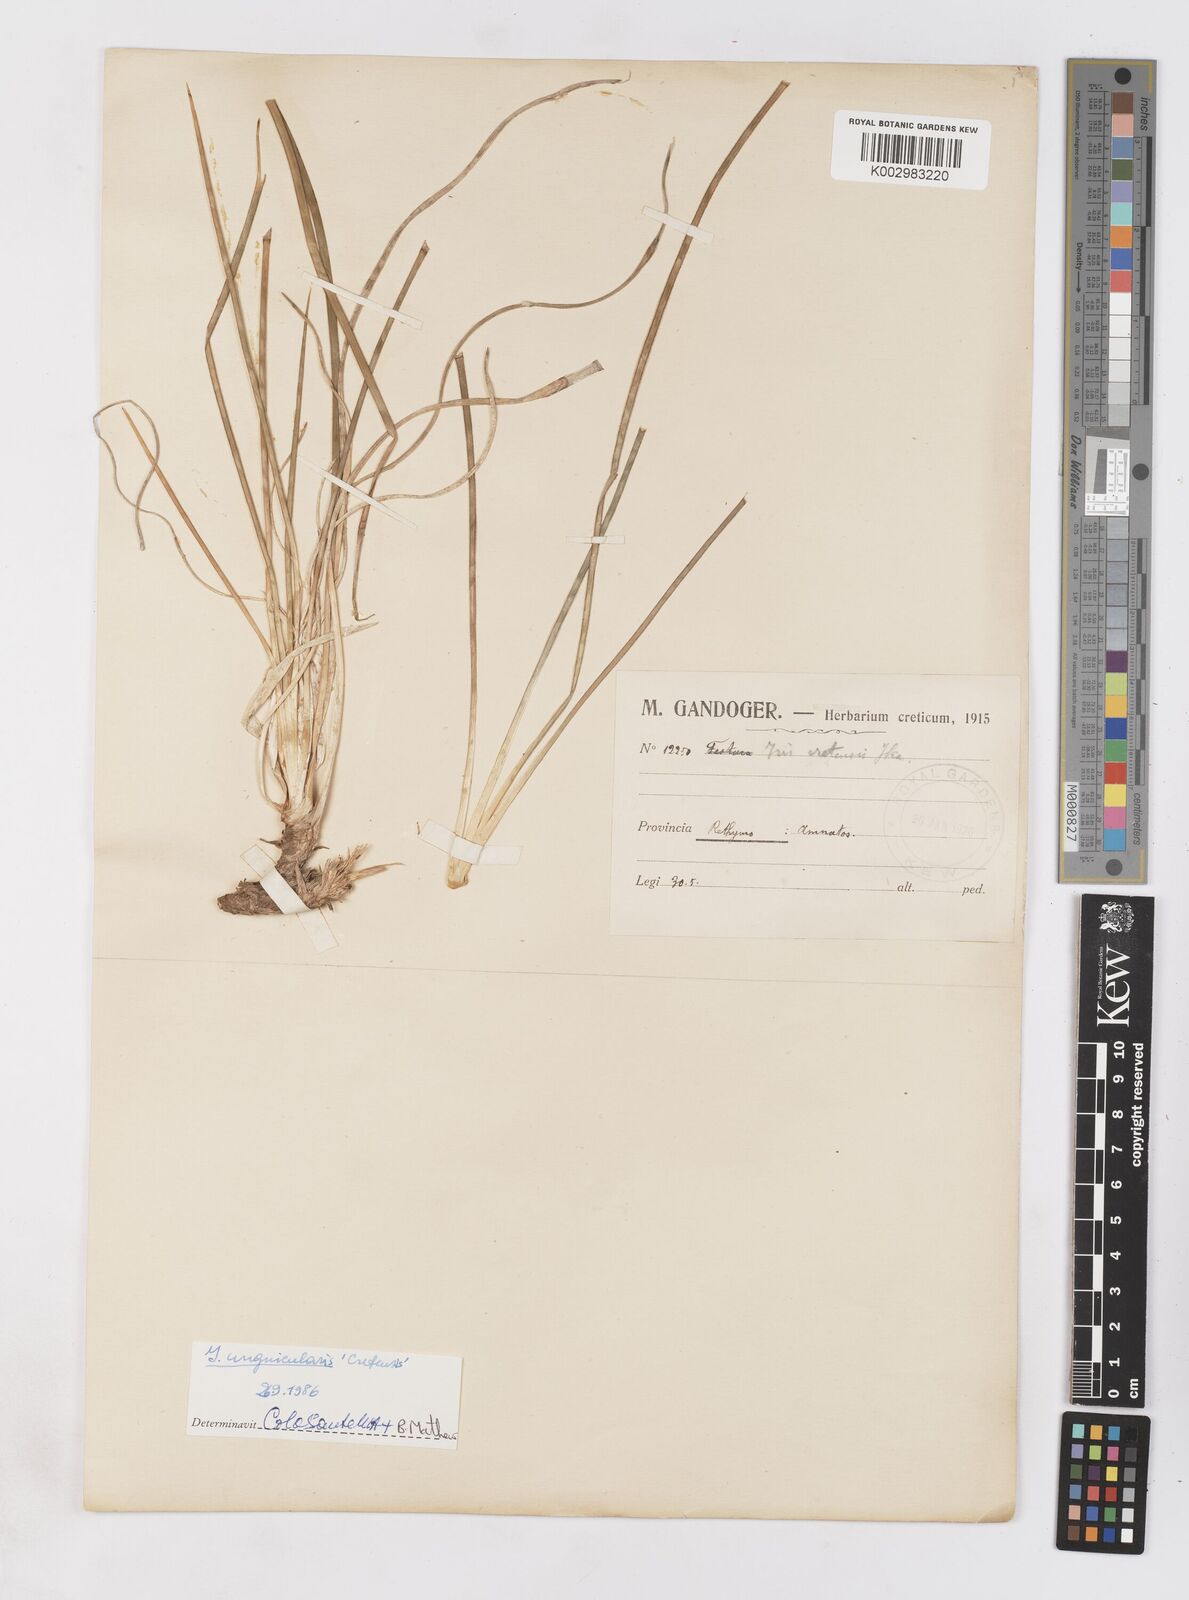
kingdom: Plantae
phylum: Tracheophyta
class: Liliopsida
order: Asparagales
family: Iridaceae
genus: Iris
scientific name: Iris unguicularis
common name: Algerian iris
